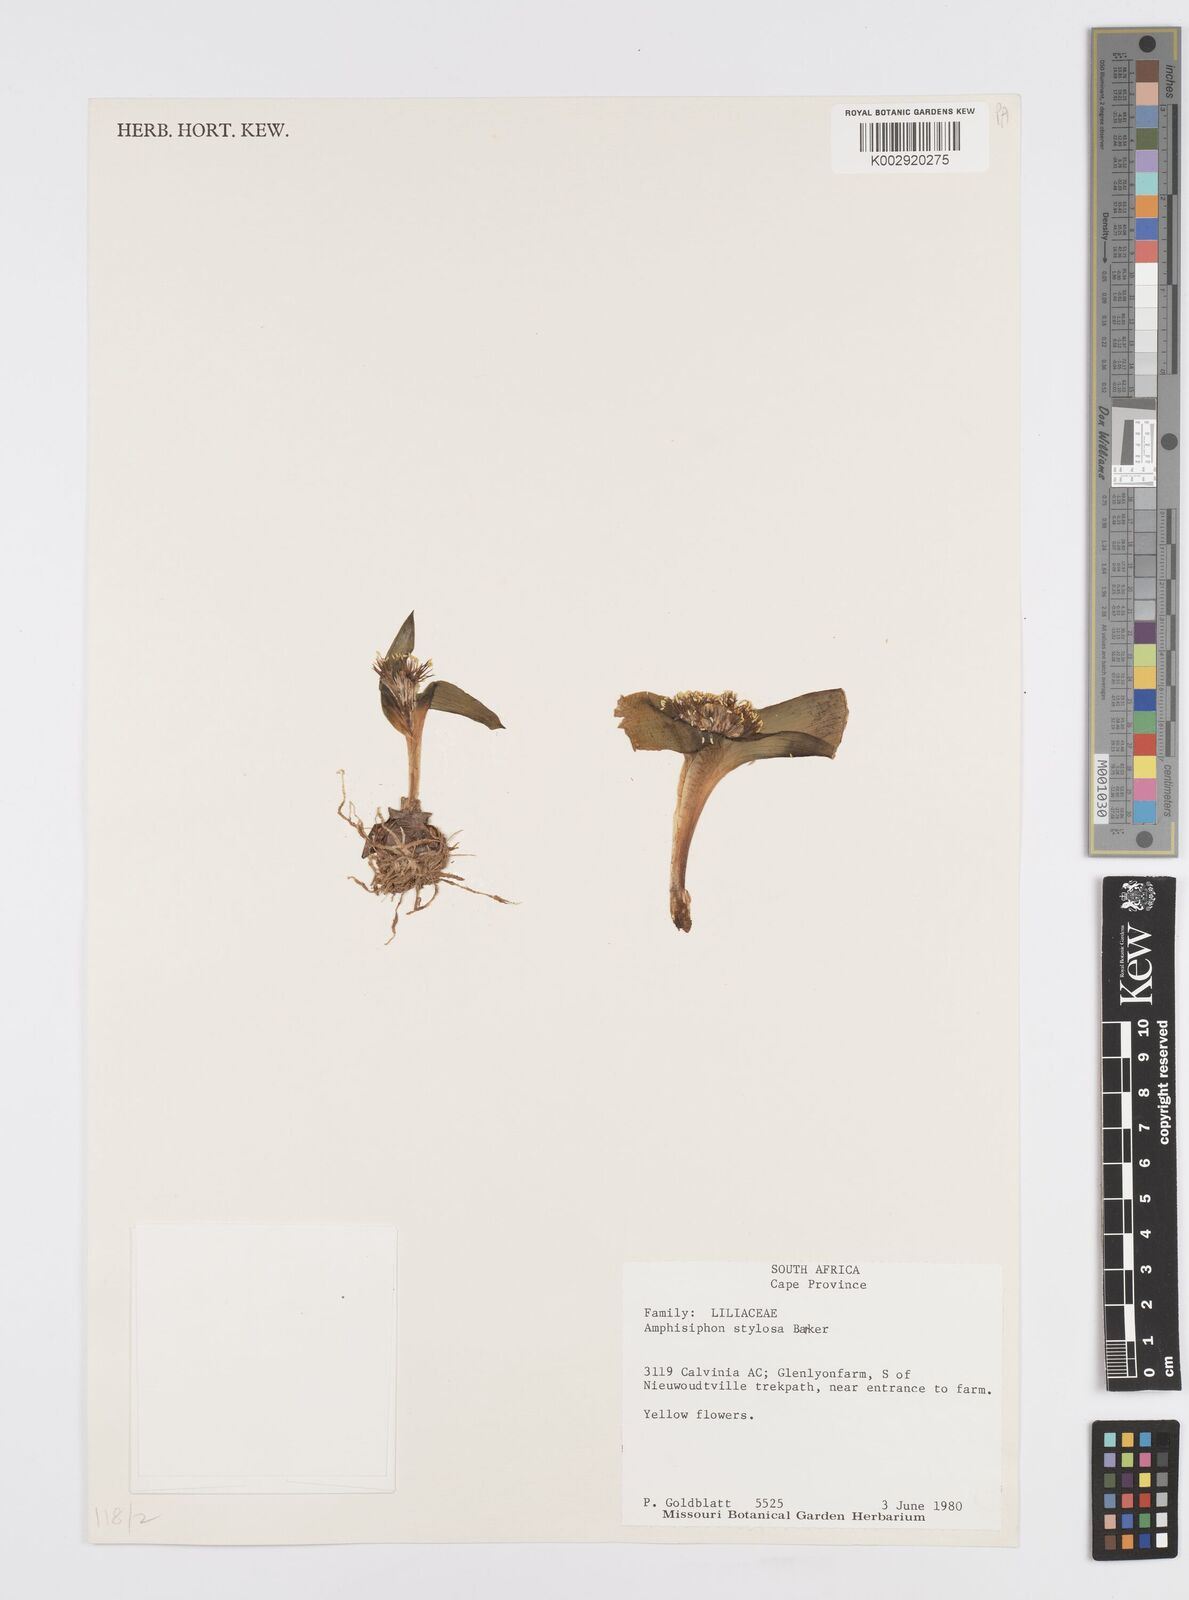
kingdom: Plantae
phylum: Tracheophyta
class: Liliopsida
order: Asparagales
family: Asparagaceae
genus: Daubenya
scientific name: Daubenya stylosa
